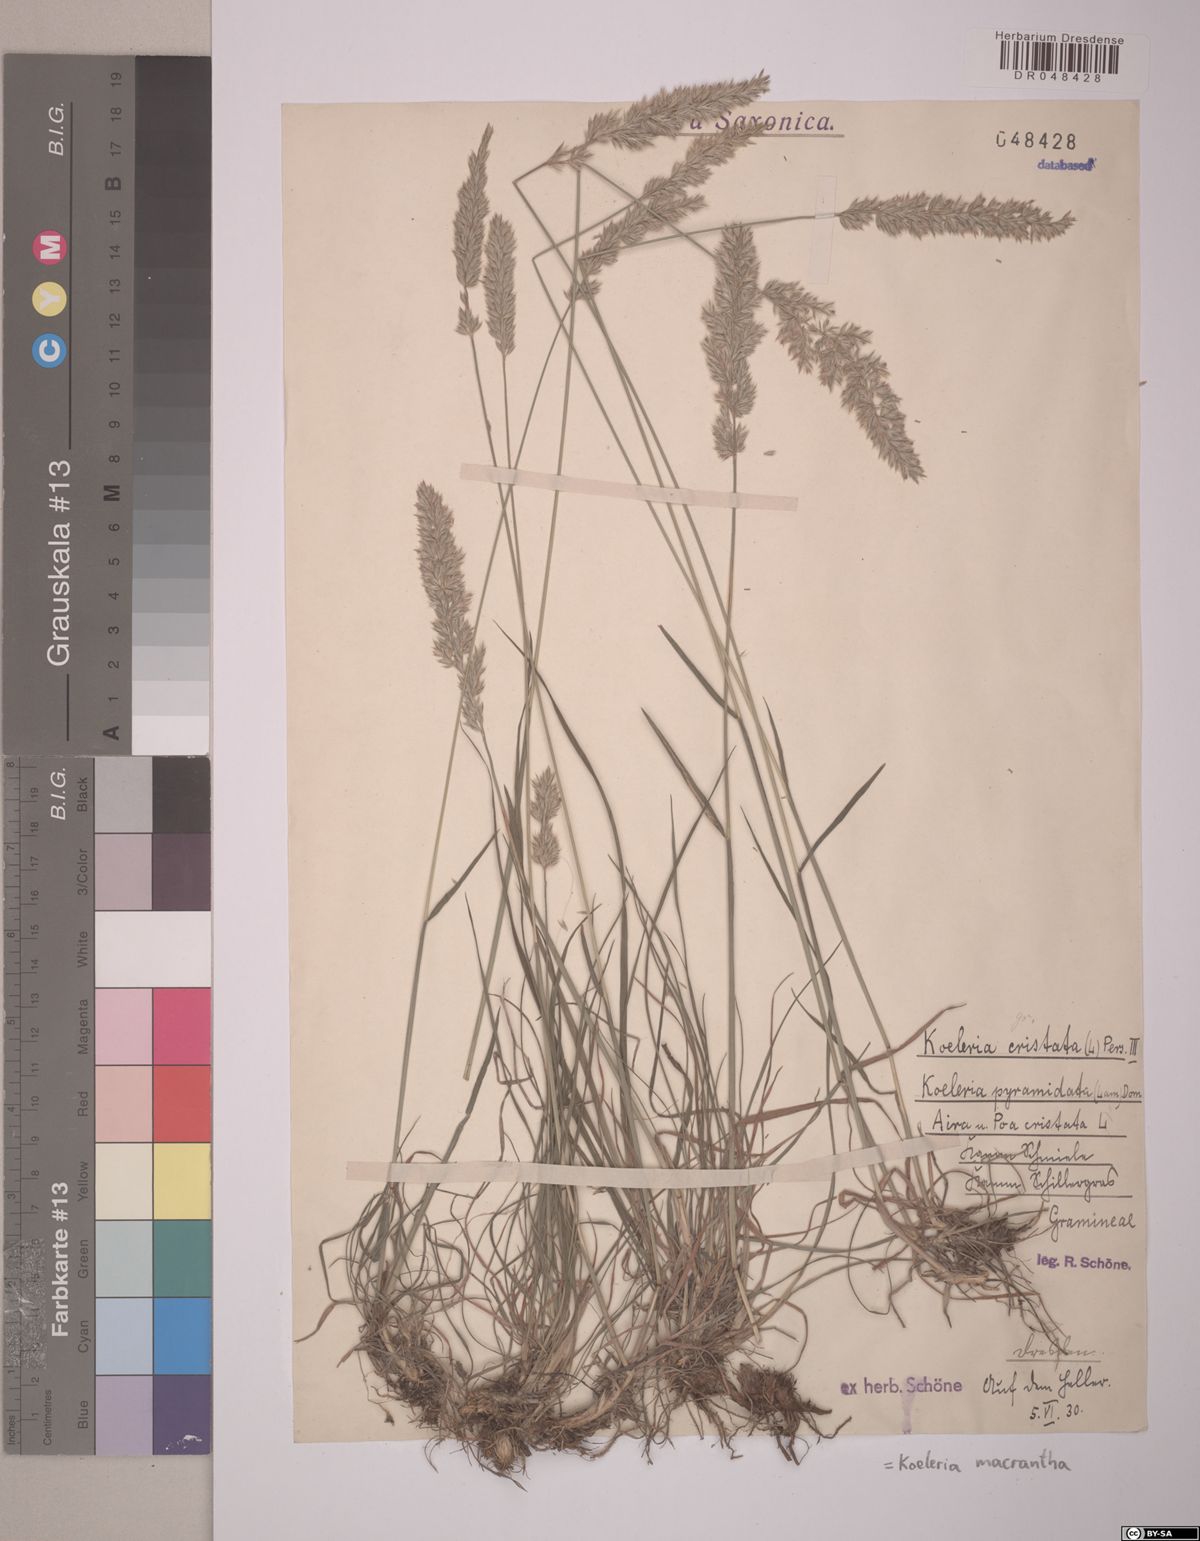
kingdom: Plantae
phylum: Tracheophyta
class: Liliopsida
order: Poales
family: Poaceae
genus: Koeleria
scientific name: Koeleria macrantha
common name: Crested hair-grass
